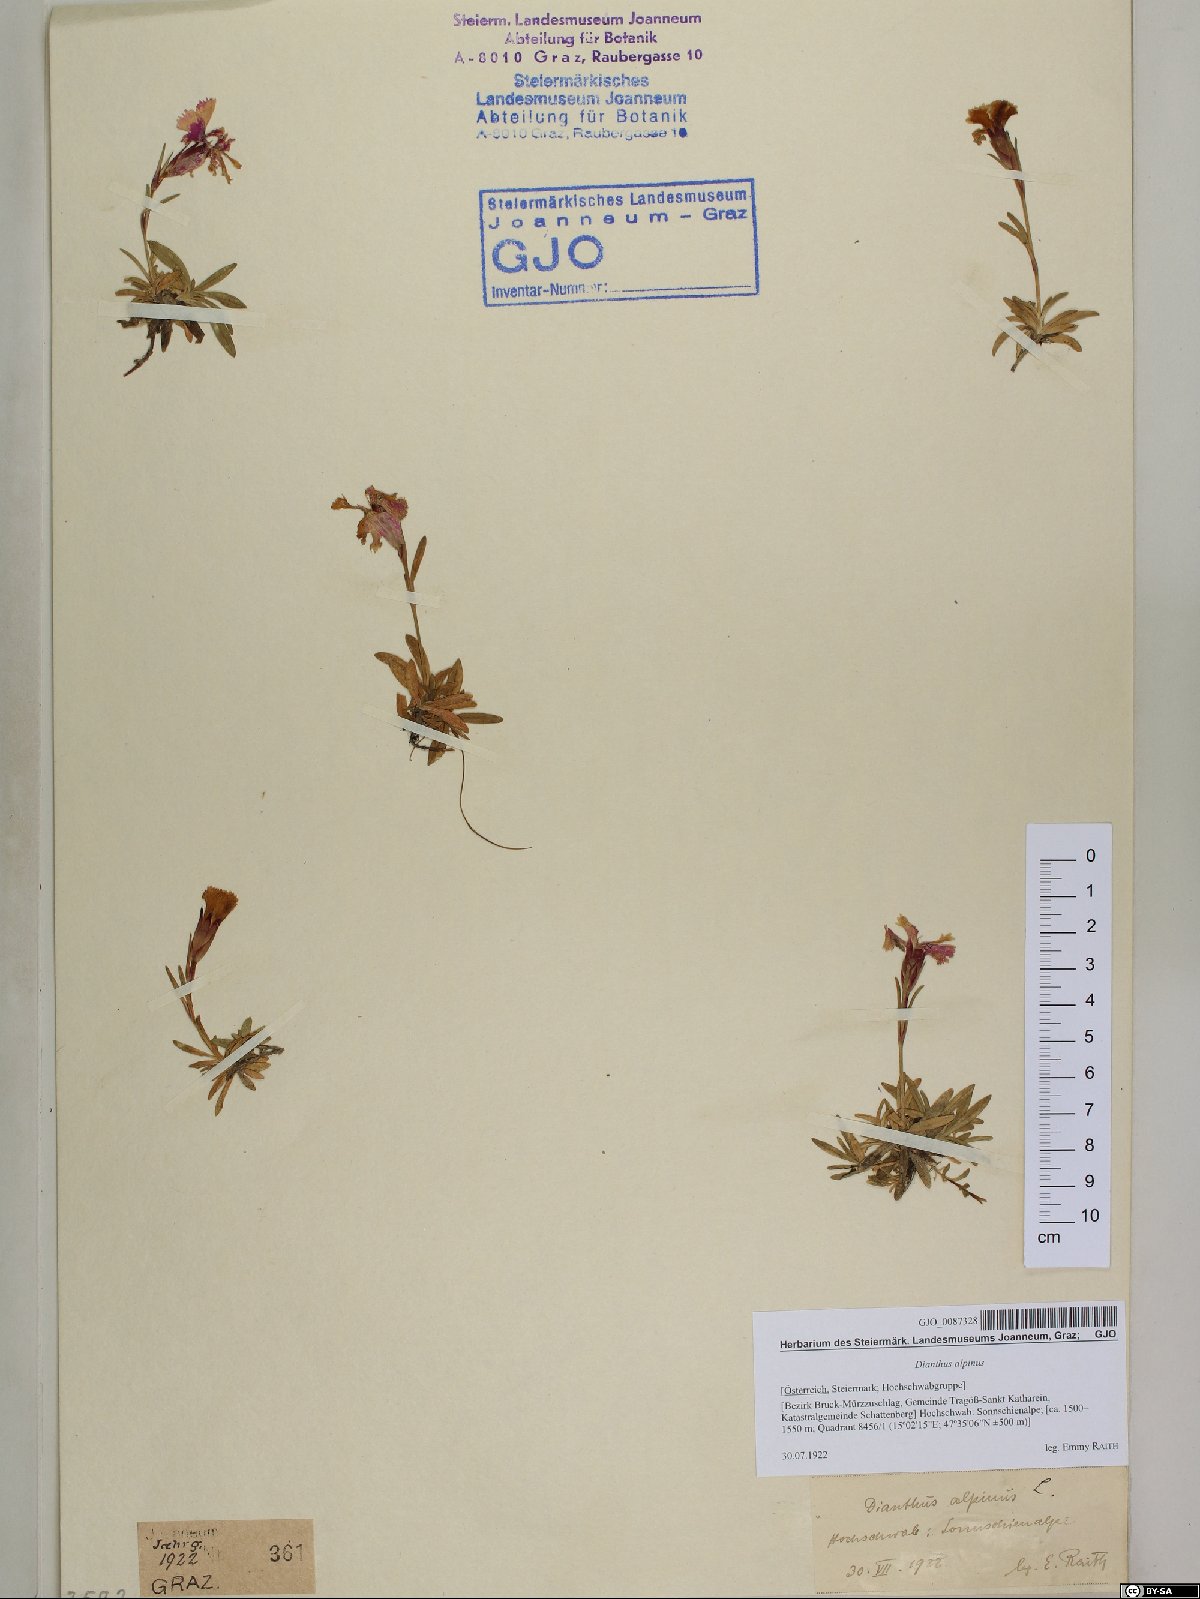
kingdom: Plantae
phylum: Tracheophyta
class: Magnoliopsida
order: Caryophyllales
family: Caryophyllaceae
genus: Dianthus
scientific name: Dianthus alpinus
